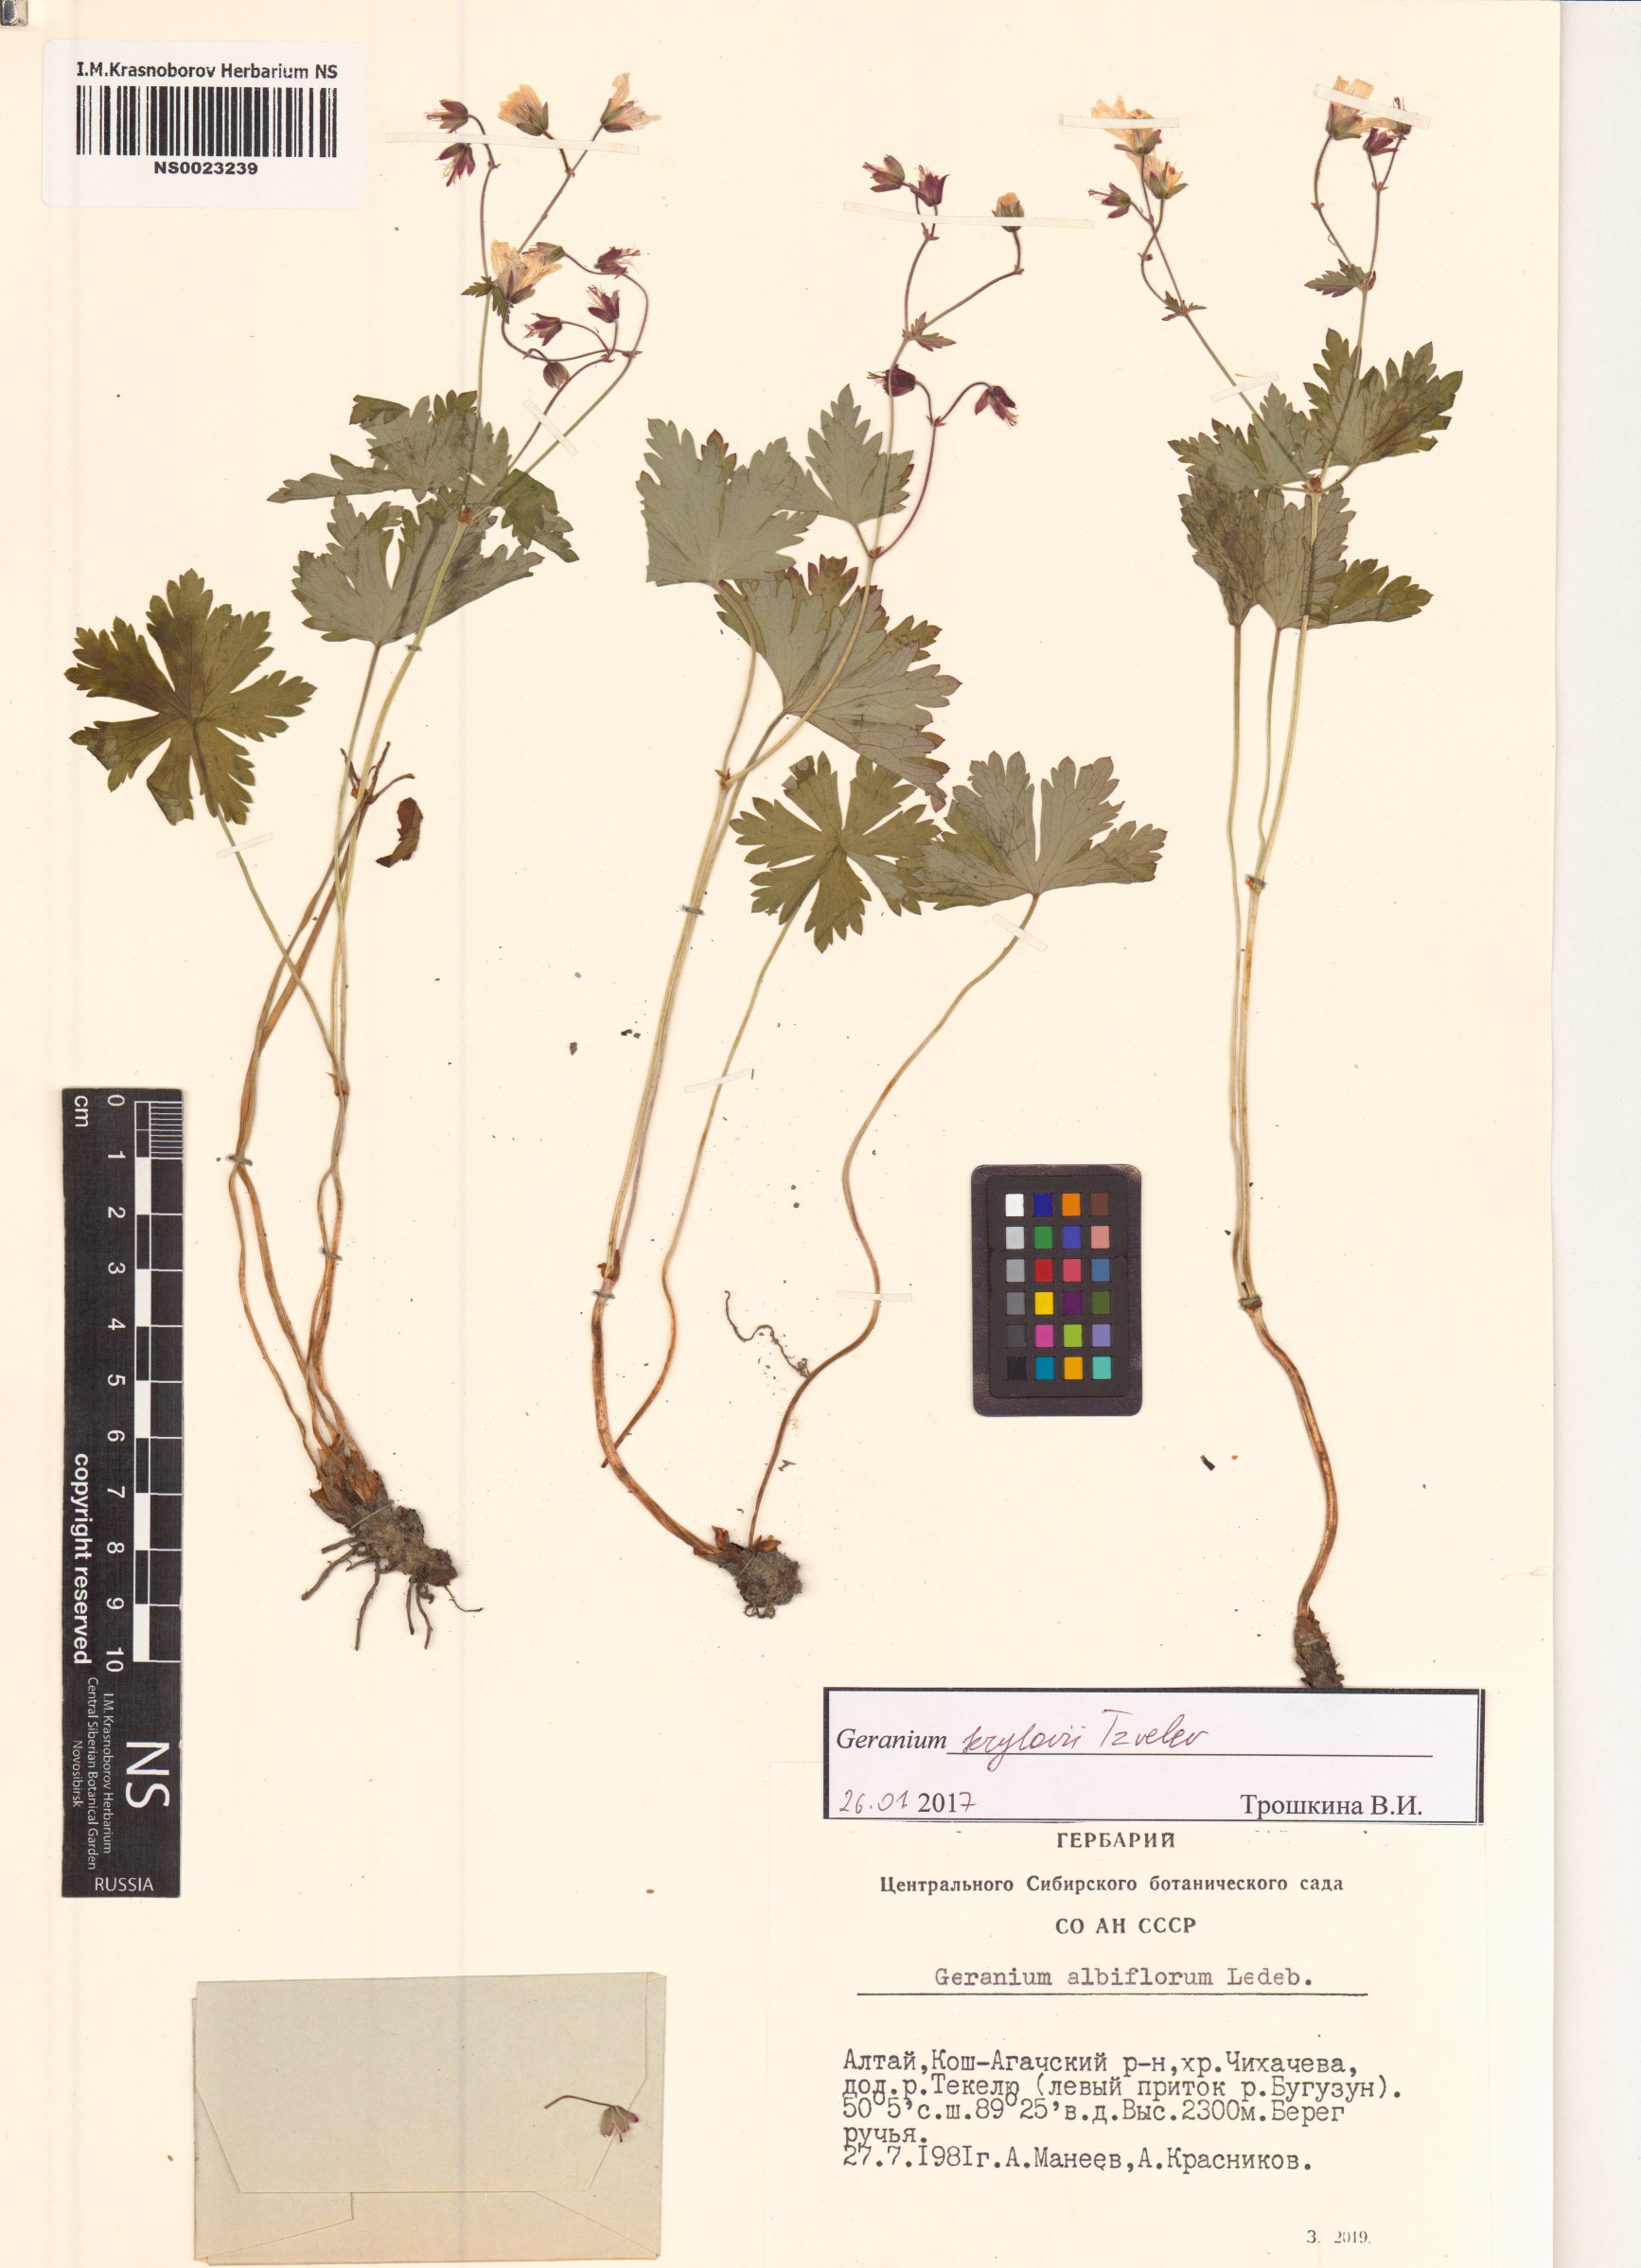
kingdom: Plantae
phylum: Tracheophyta
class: Magnoliopsida
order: Geraniales
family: Geraniaceae
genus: Geranium
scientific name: Geranium sylvaticum
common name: Wood crane's-bill
